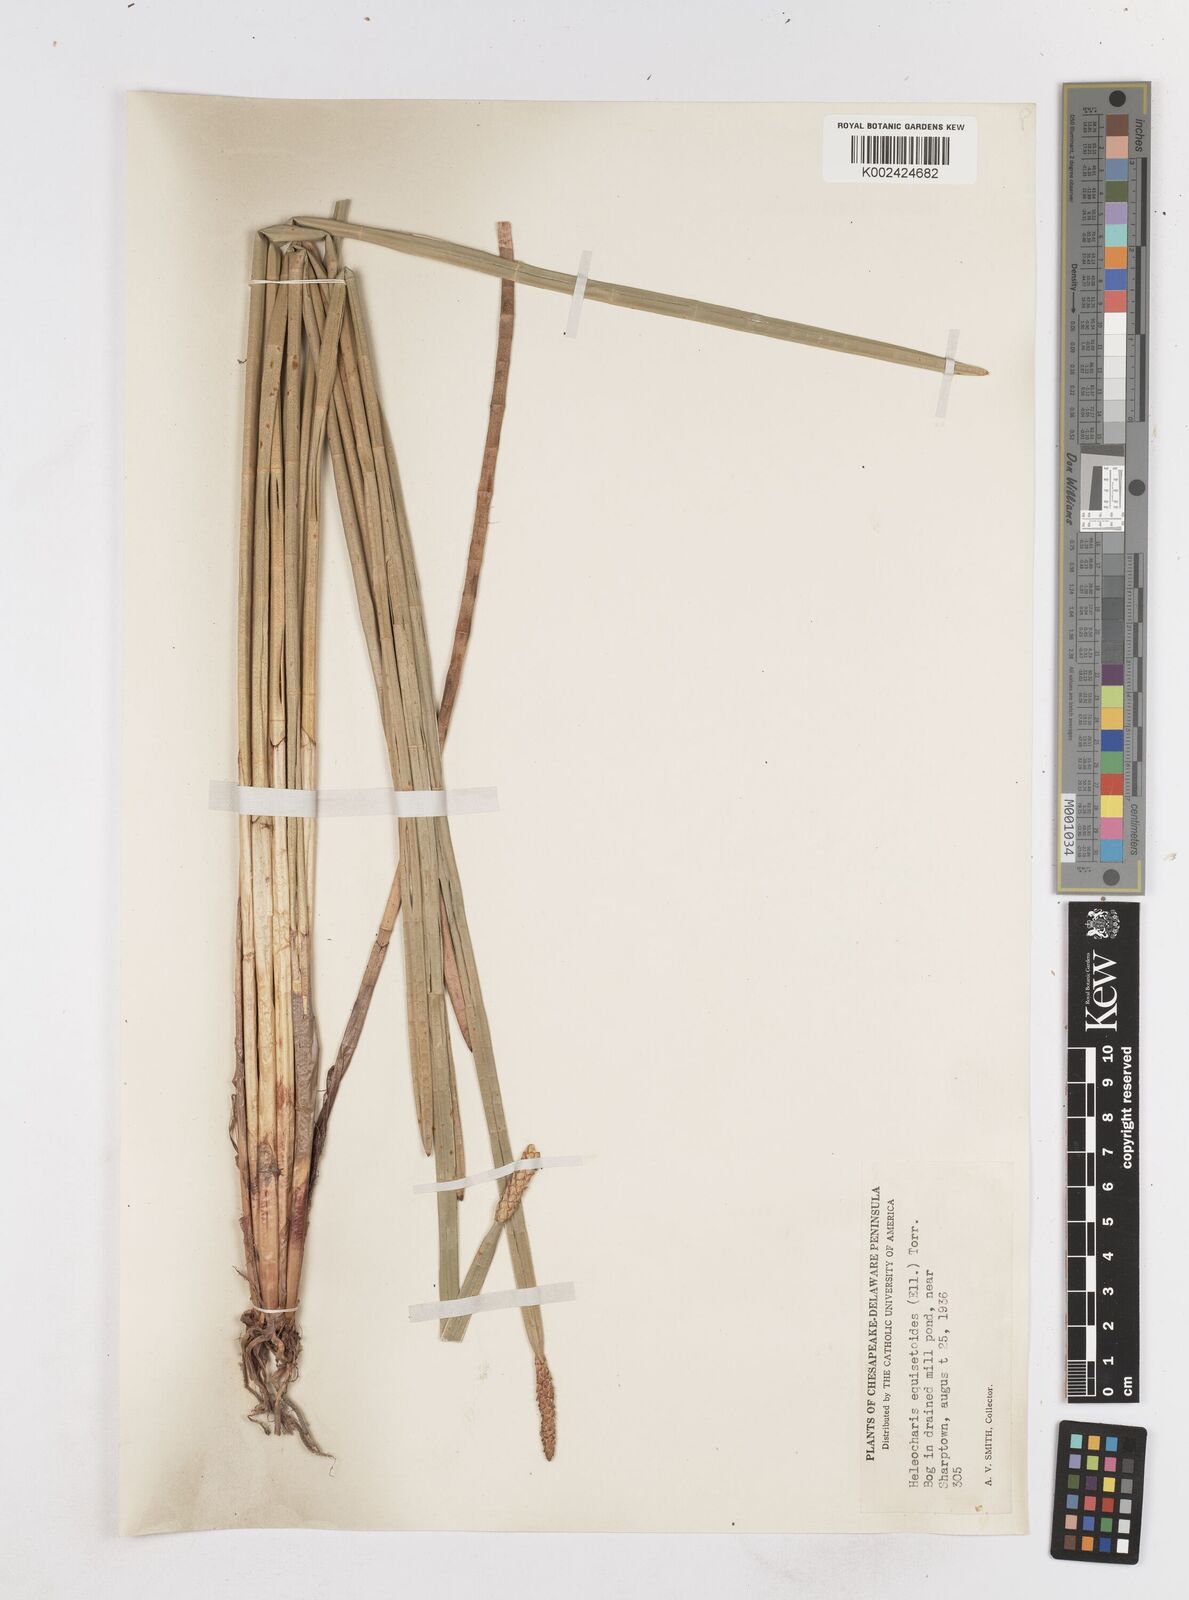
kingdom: Plantae
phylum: Tracheophyta
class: Liliopsida
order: Poales
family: Cyperaceae
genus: Eleocharis
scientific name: Eleocharis equisetoides
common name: Horsetail spike-rush
